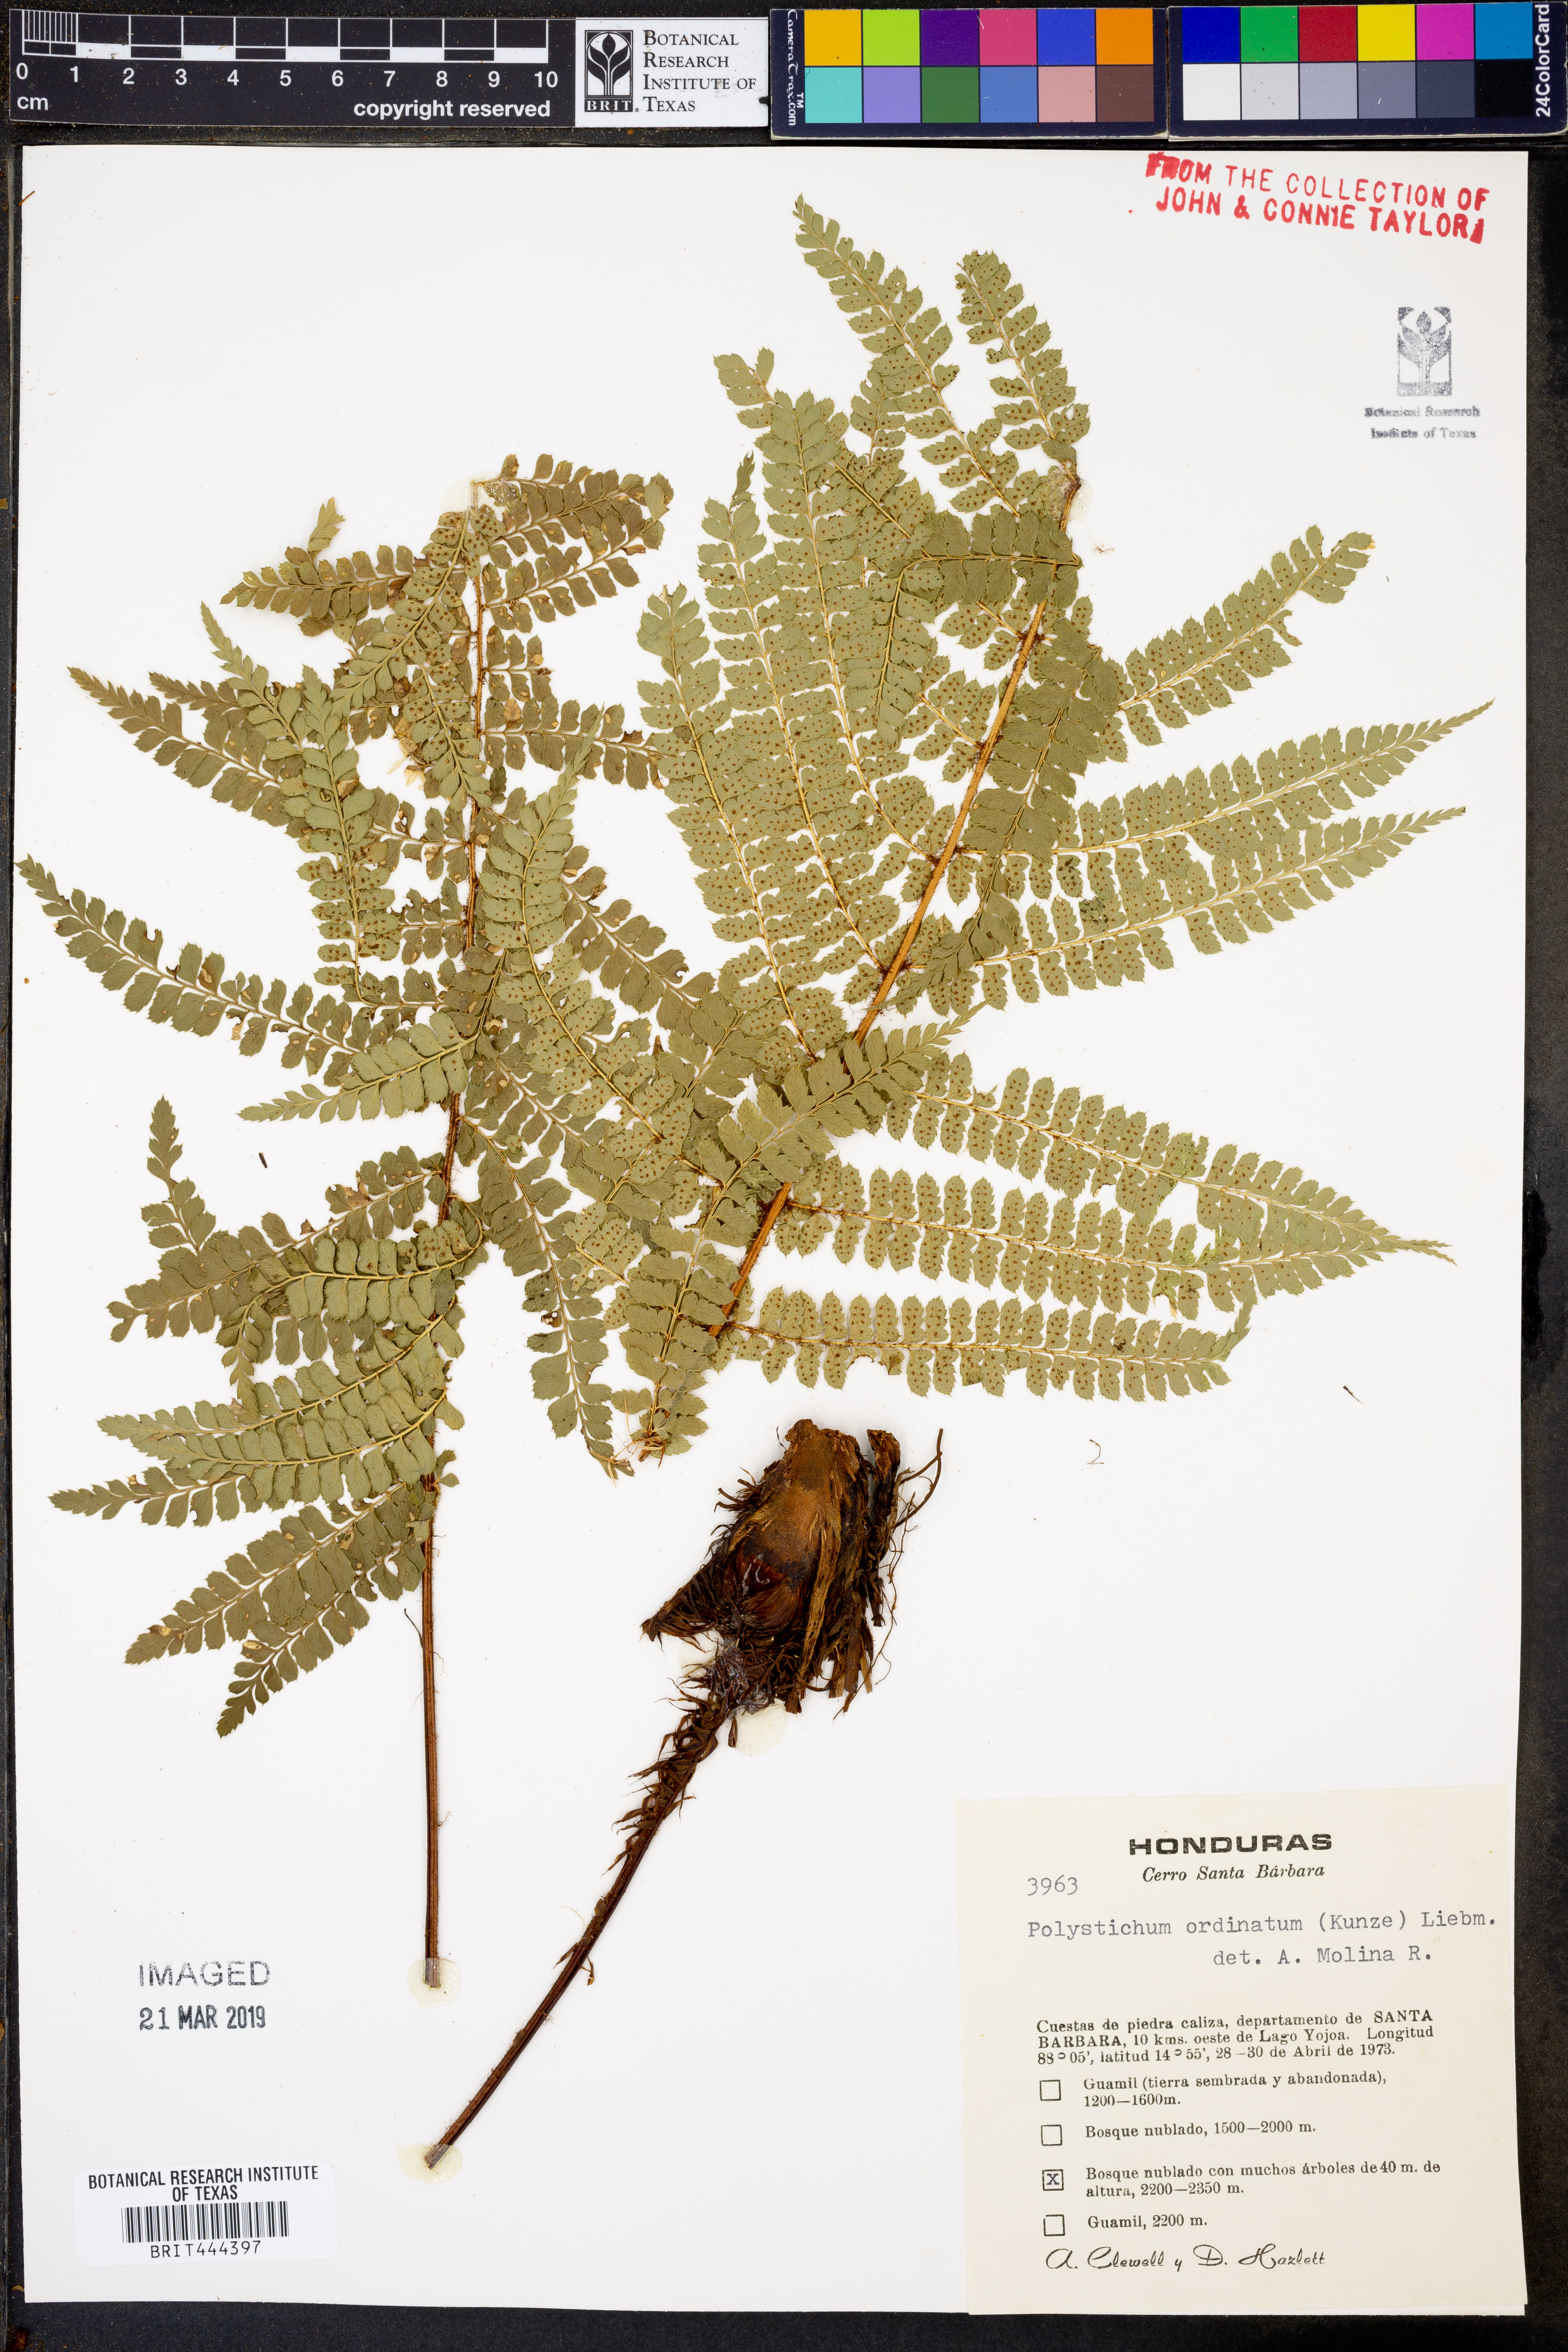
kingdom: Plantae
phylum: Tracheophyta
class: Polypodiopsida
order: Polypodiales
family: Dryopteridaceae
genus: Polystichum
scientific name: Polystichum ordinatum
